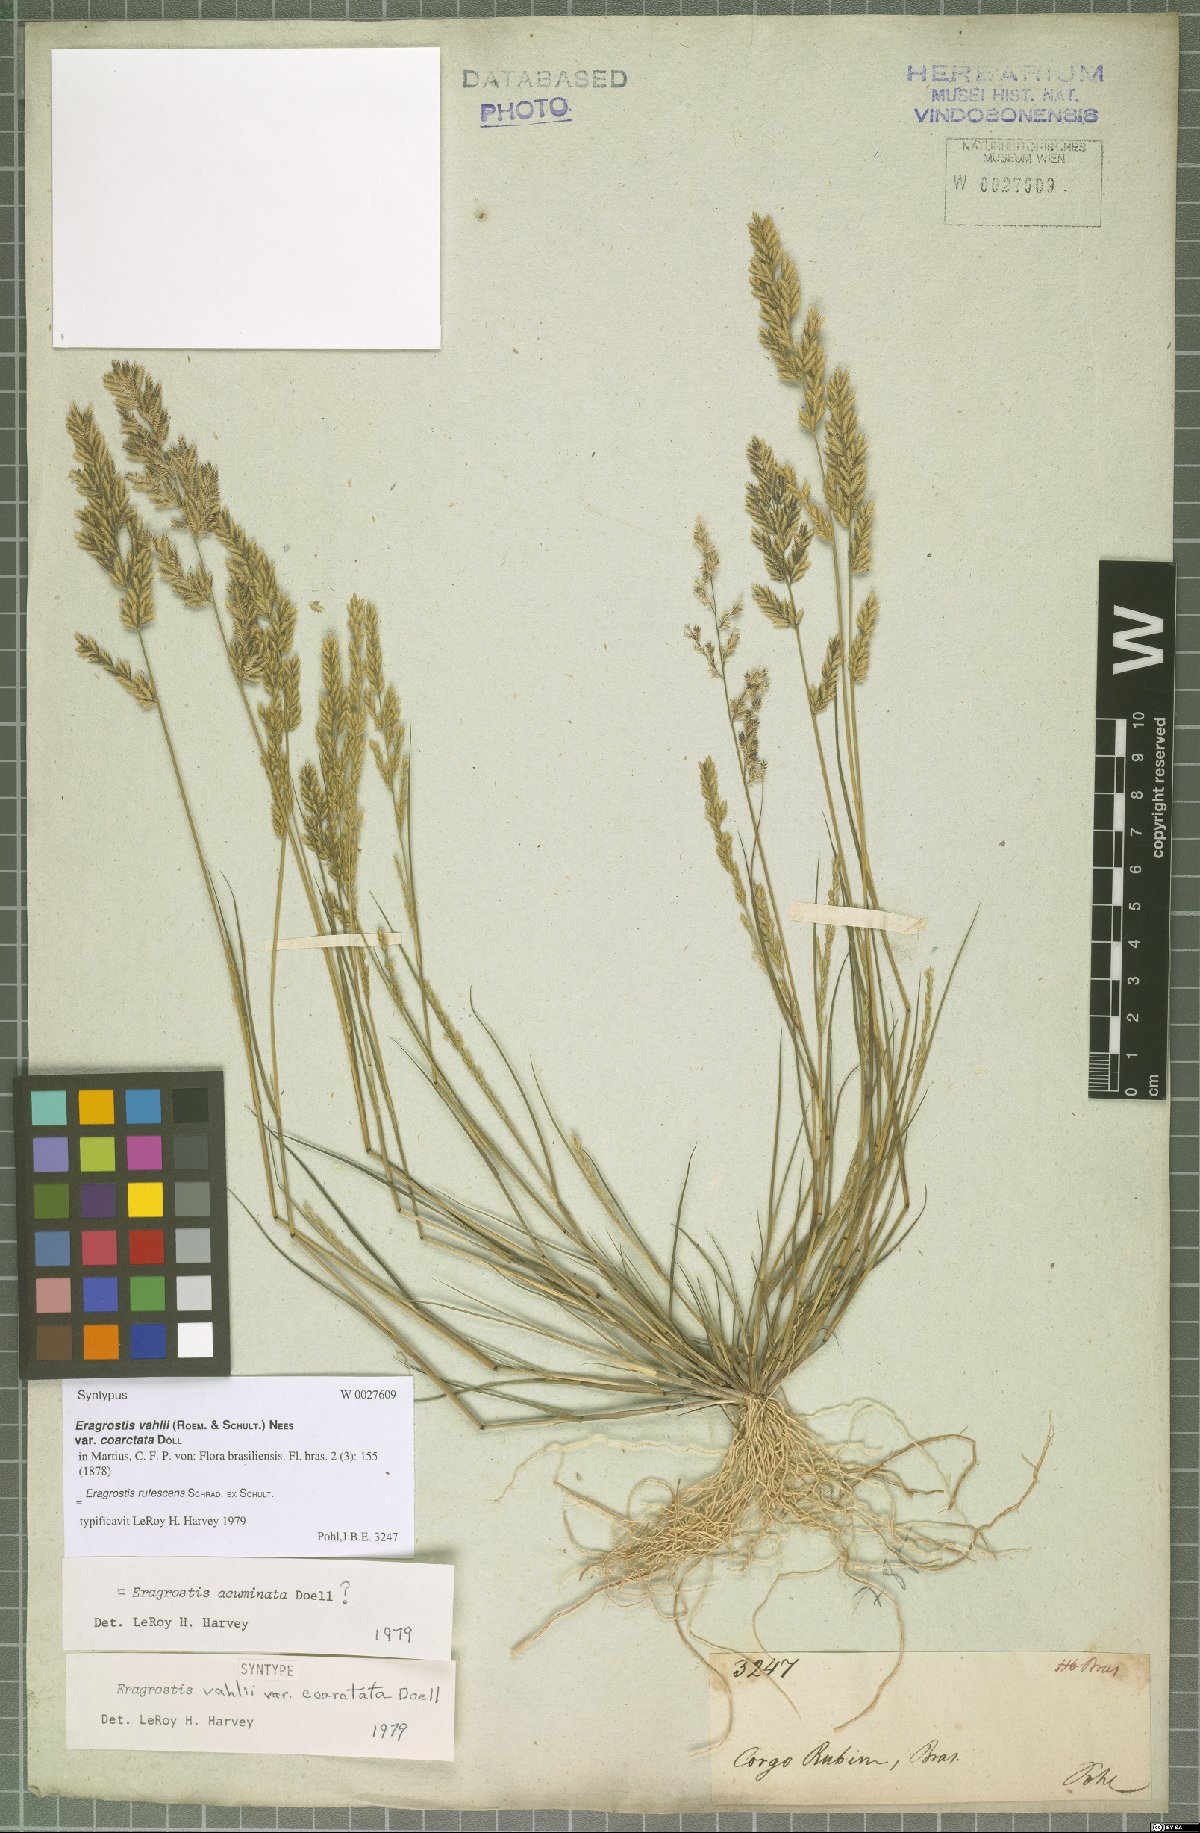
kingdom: Plantae
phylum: Tracheophyta
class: Liliopsida
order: Poales
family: Poaceae
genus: Eragrostis
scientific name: Eragrostis rufescens
